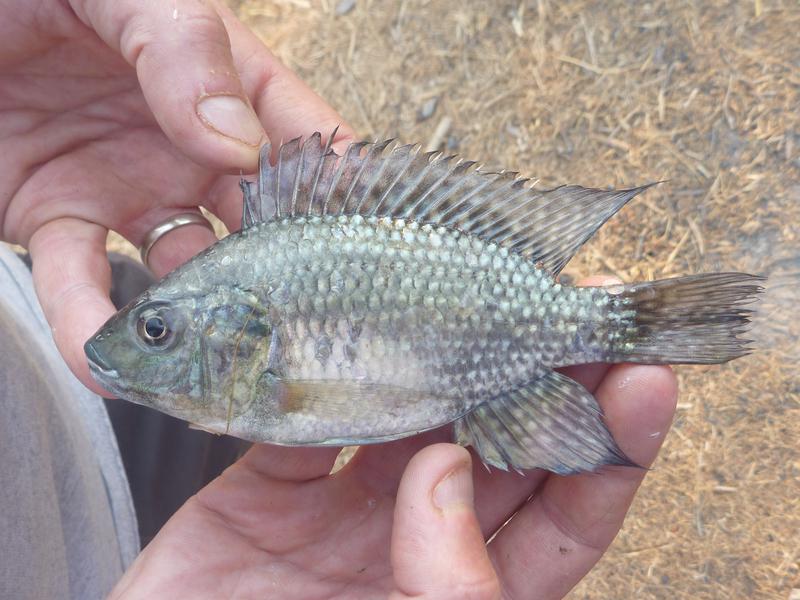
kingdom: Animalia
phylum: Chordata
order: Perciformes
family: Cichlidae
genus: Oreochromis
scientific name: Oreochromis leucostictus
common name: Blue spotted tilapia
